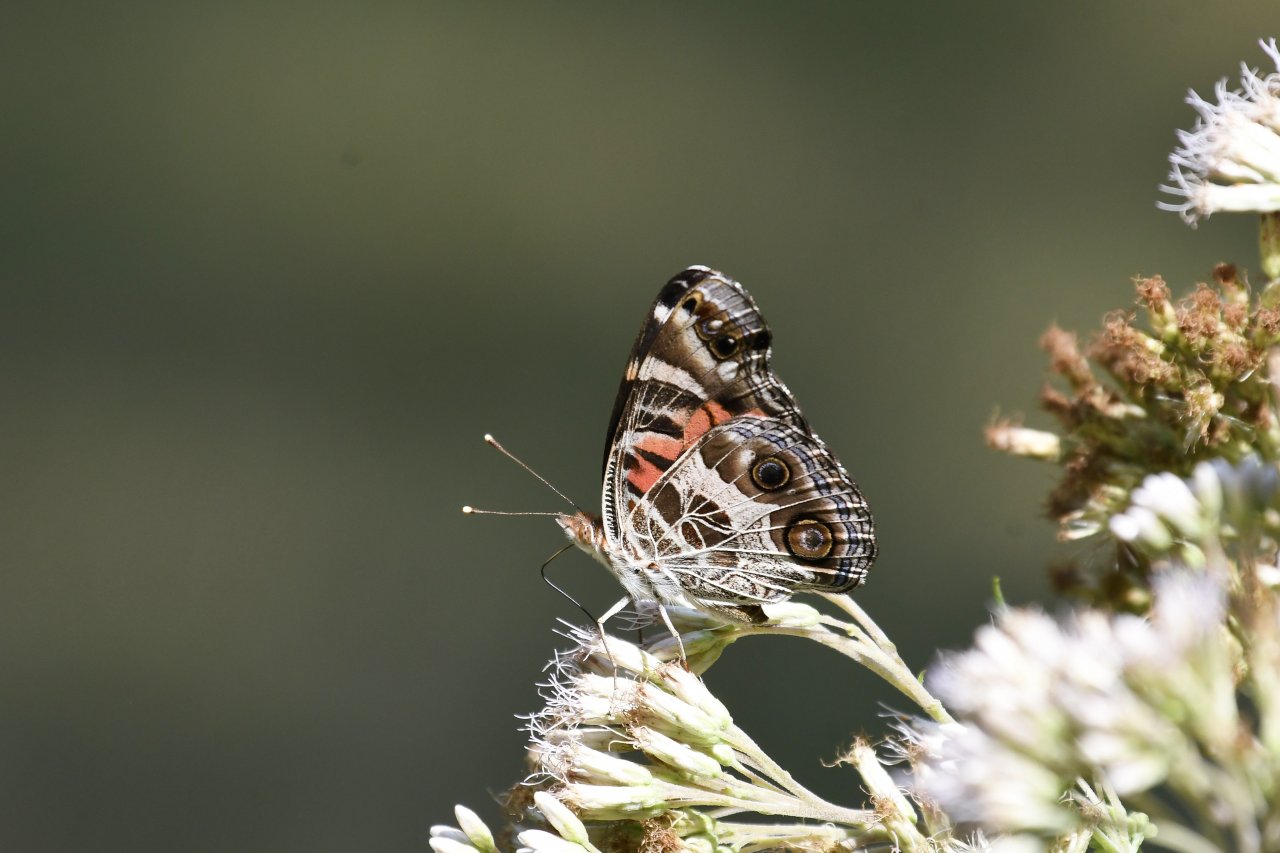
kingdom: Animalia
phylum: Arthropoda
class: Insecta
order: Lepidoptera
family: Nymphalidae
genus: Vanessa
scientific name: Vanessa virginiensis
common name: American Lady
